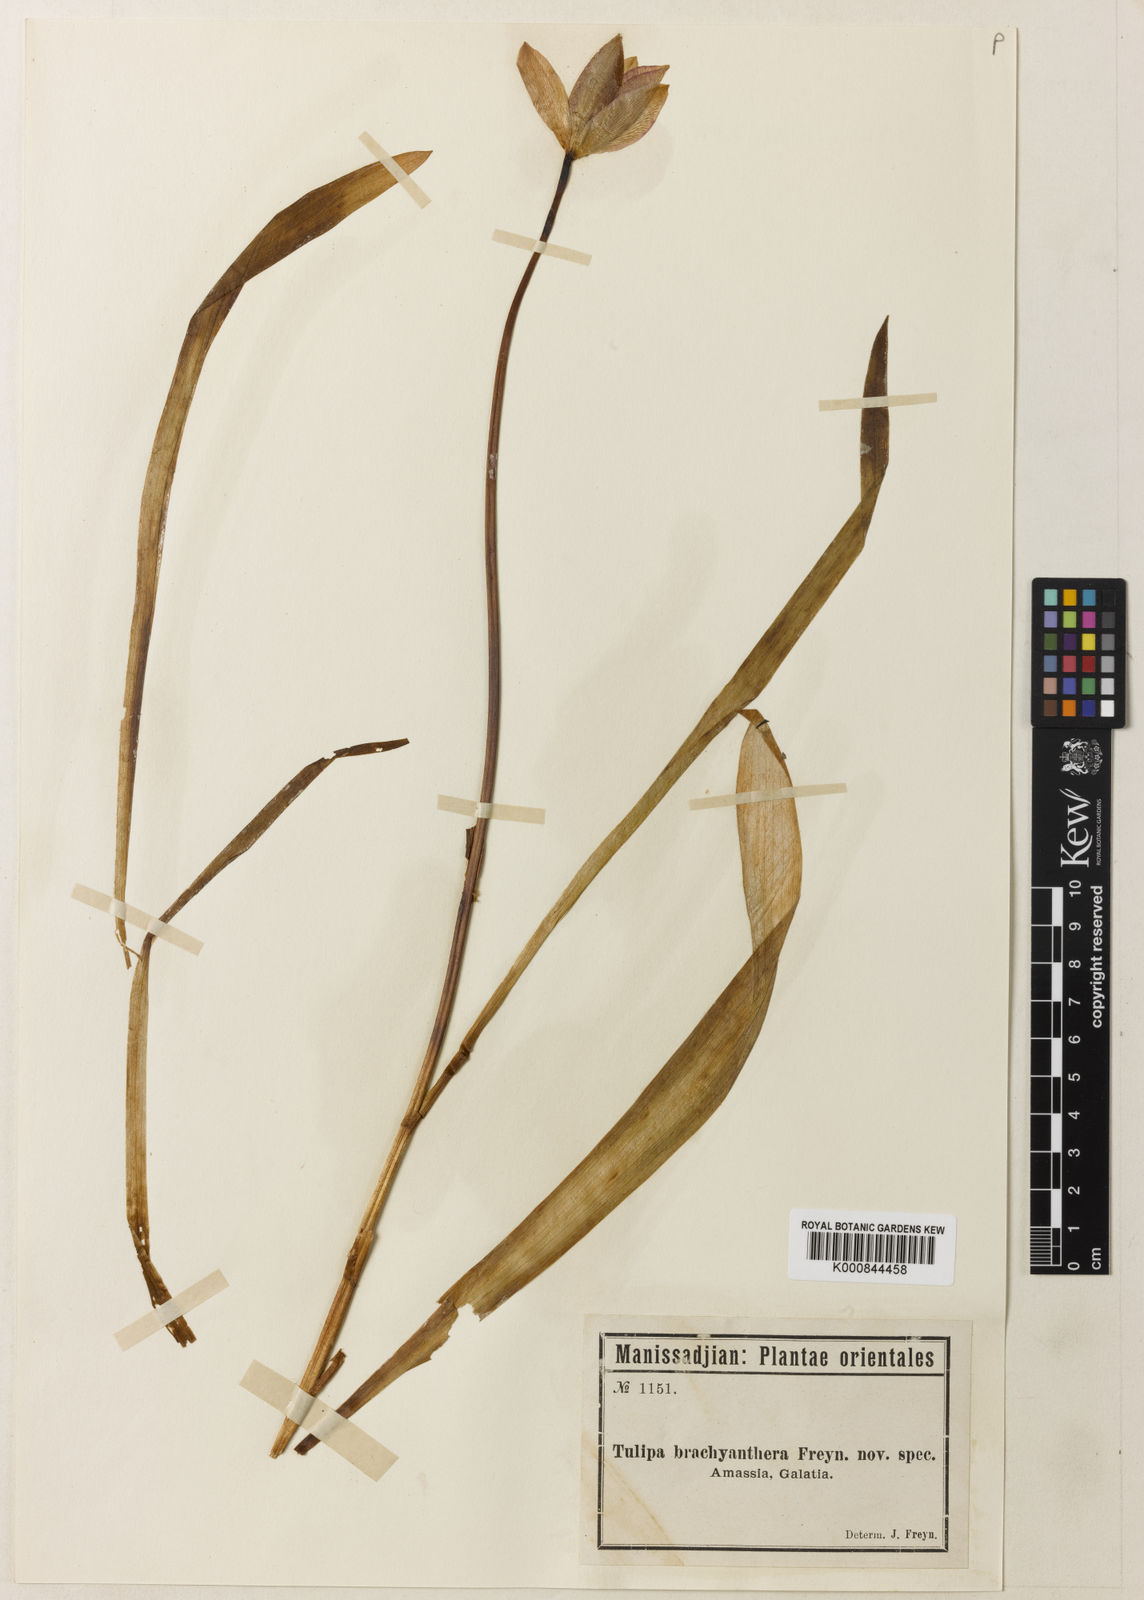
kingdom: Plantae
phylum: Tracheophyta
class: Liliopsida
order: Liliales
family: Liliaceae
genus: Tulipa
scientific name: Tulipa sprengeri
